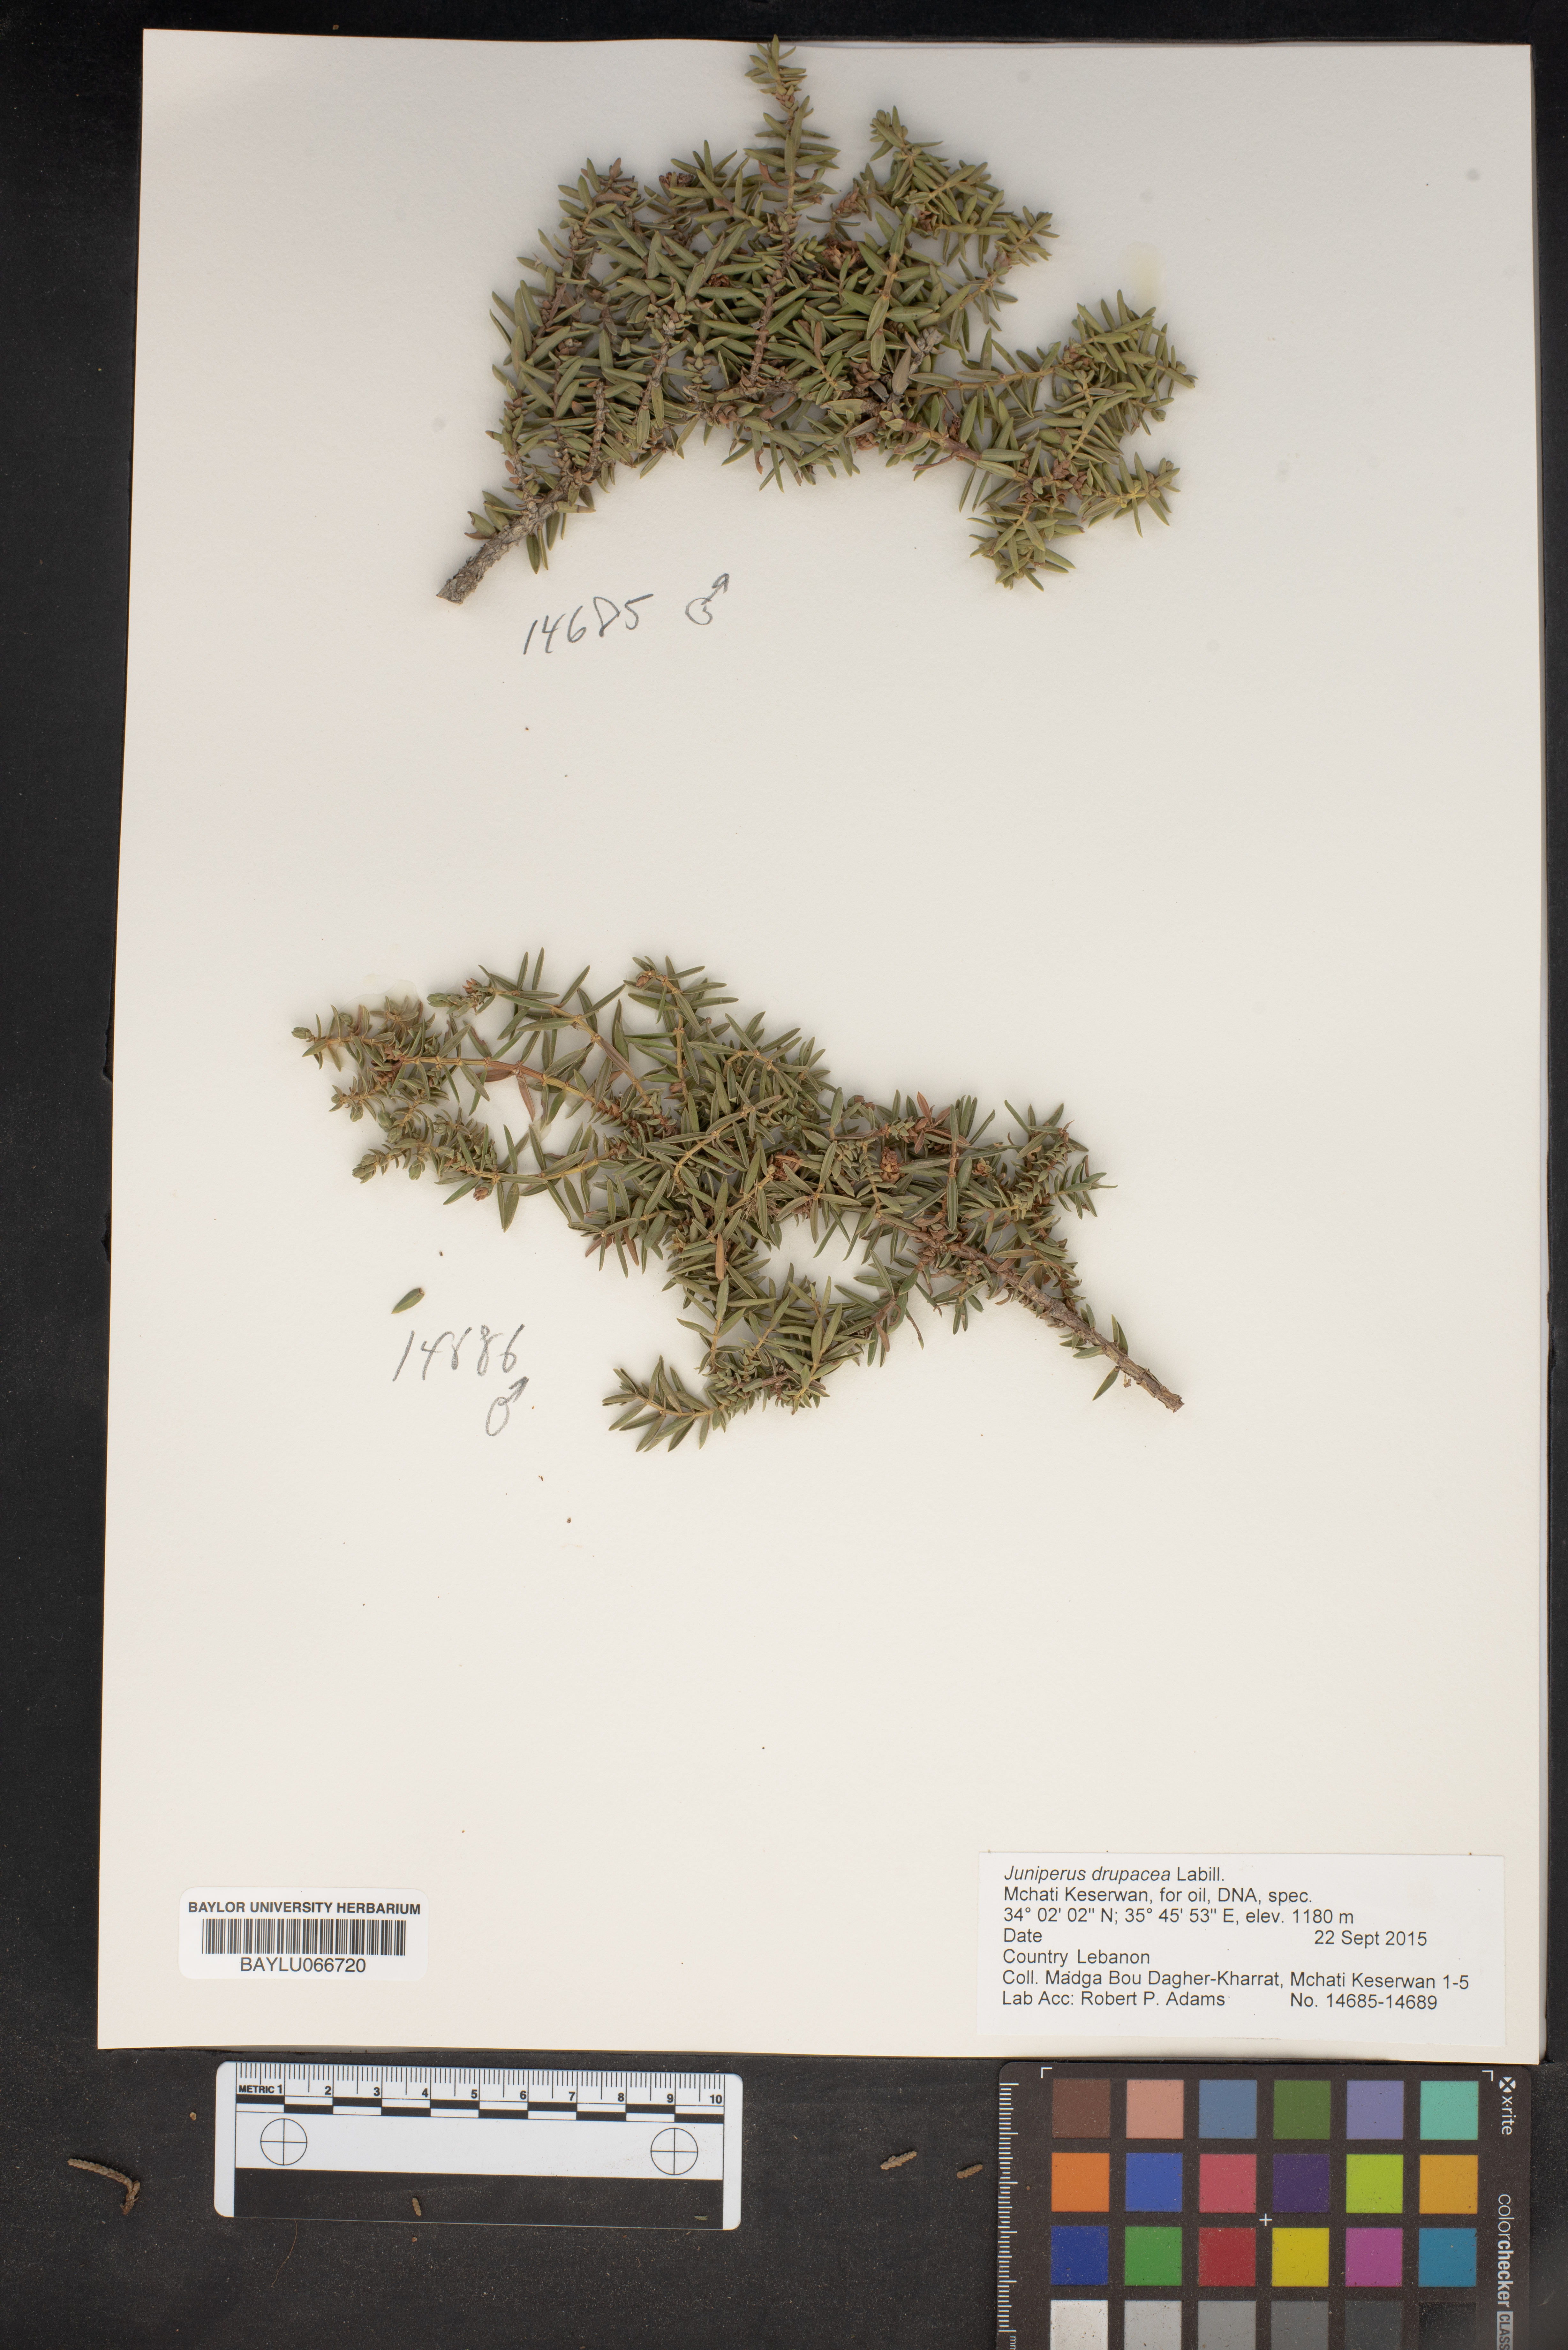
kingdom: Plantae
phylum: Tracheophyta
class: Pinopsida
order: Pinales
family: Cupressaceae
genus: Juniperus
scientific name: Juniperus drupacea
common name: Syrian juniper
